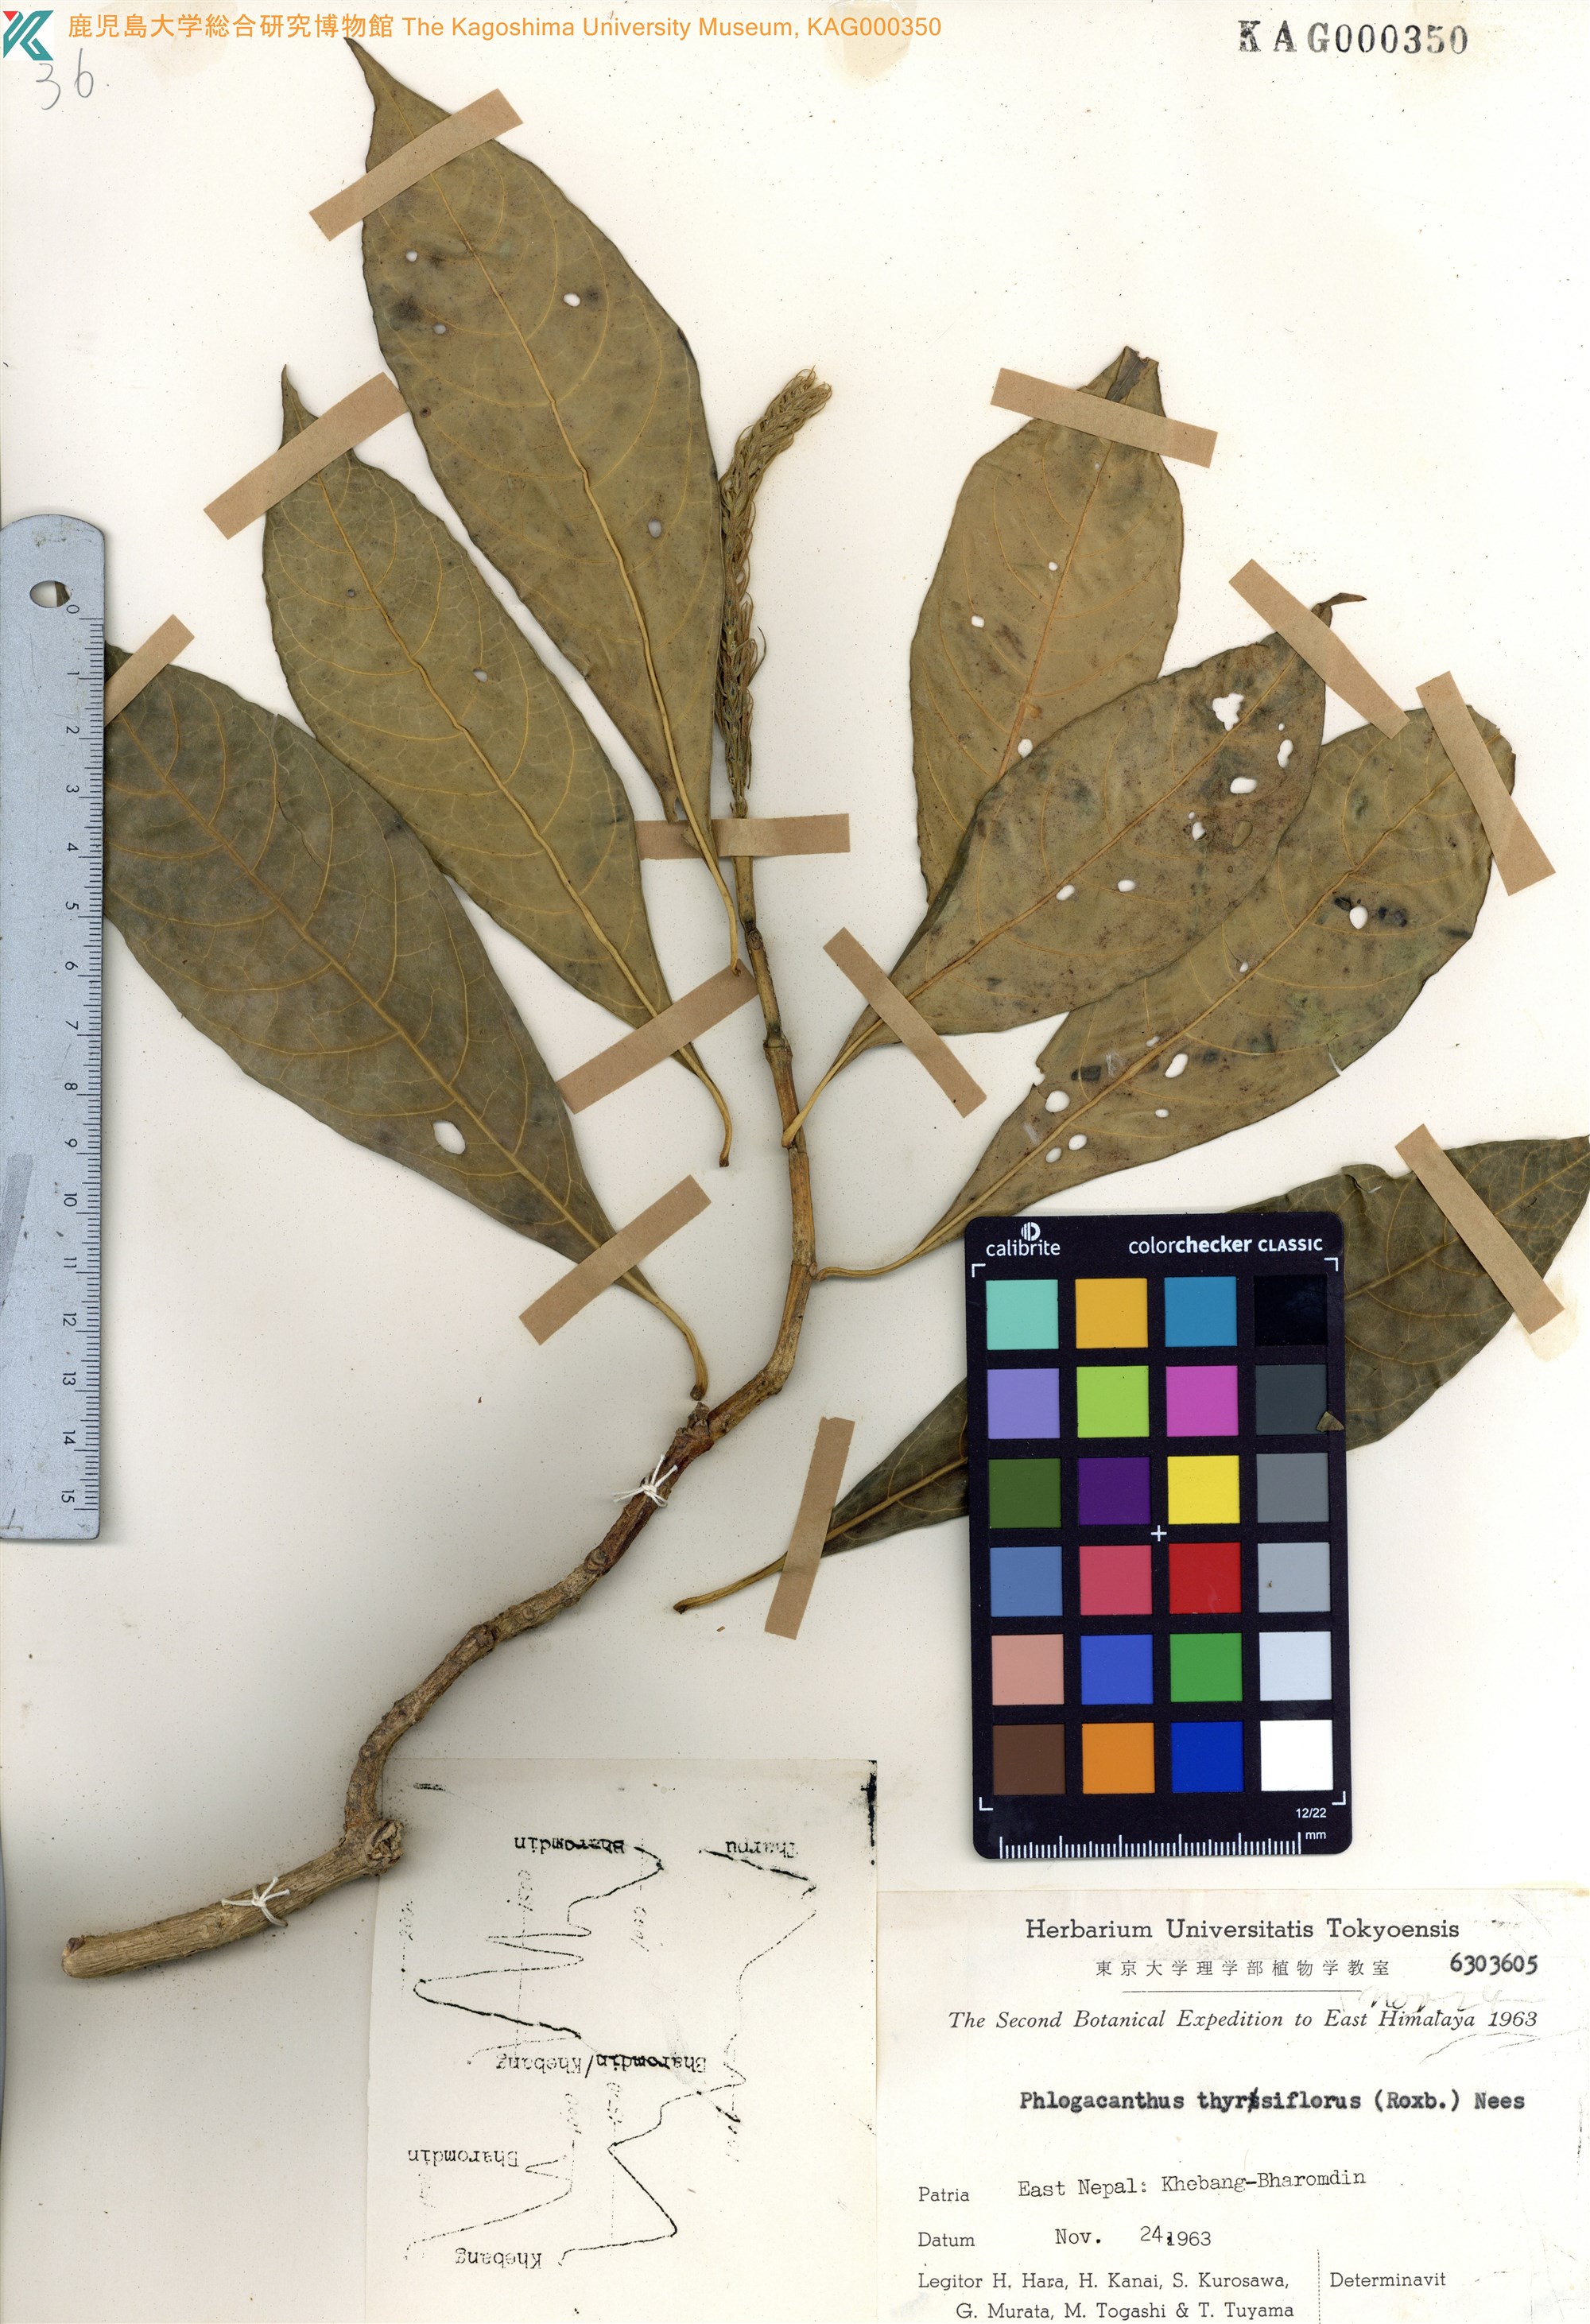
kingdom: Plantae
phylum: Tracheophyta
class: Magnoliopsida
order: Lamiales
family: Acanthaceae
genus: Phlogacanthus
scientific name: Phlogacanthus thyrsiformis
